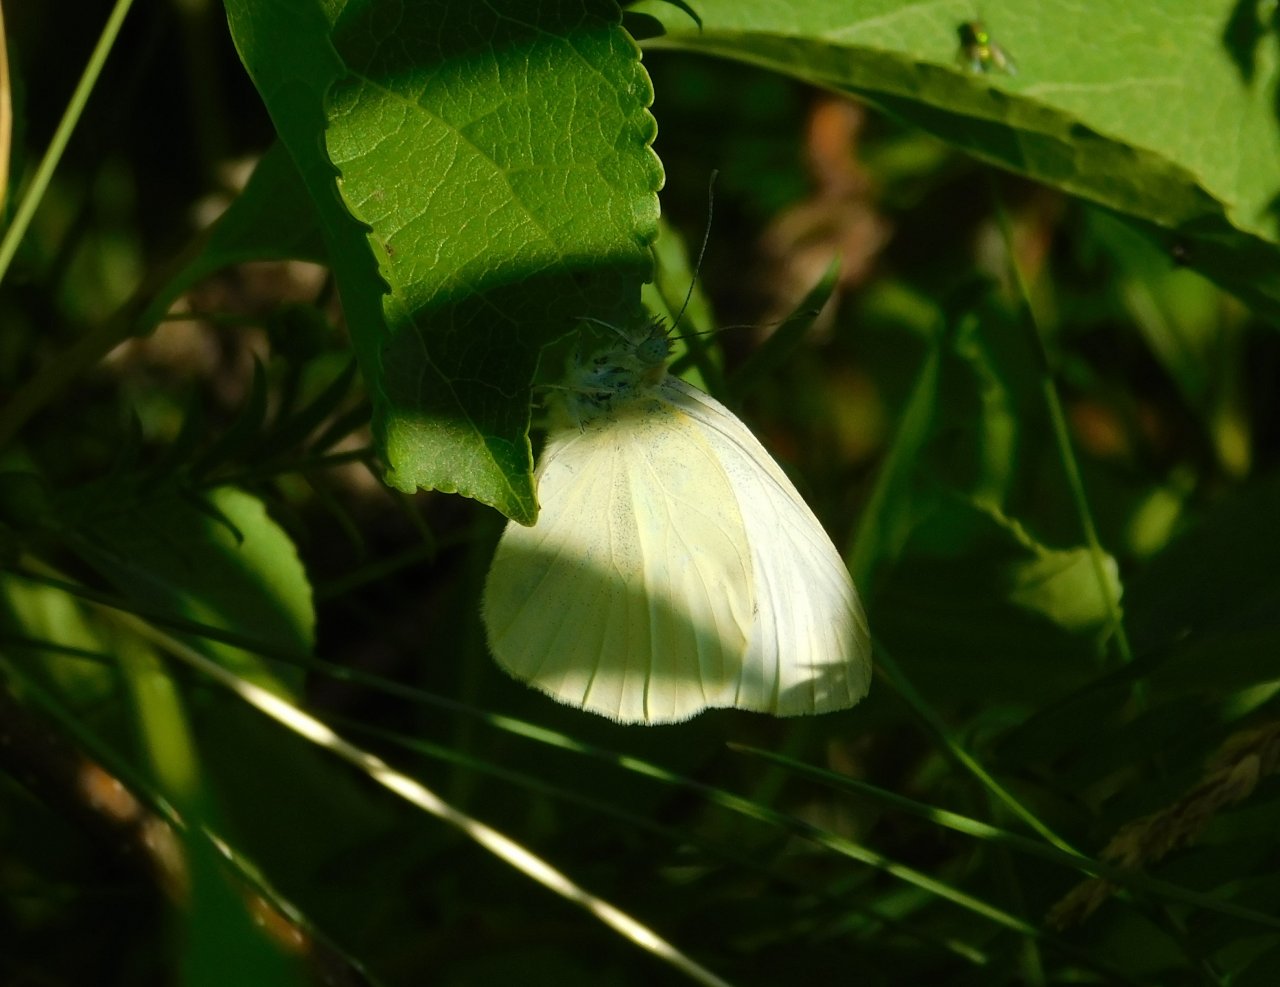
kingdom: Animalia
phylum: Arthropoda
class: Insecta
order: Lepidoptera
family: Pieridae
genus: Pieris
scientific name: Pieris rapae
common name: Cabbage White
